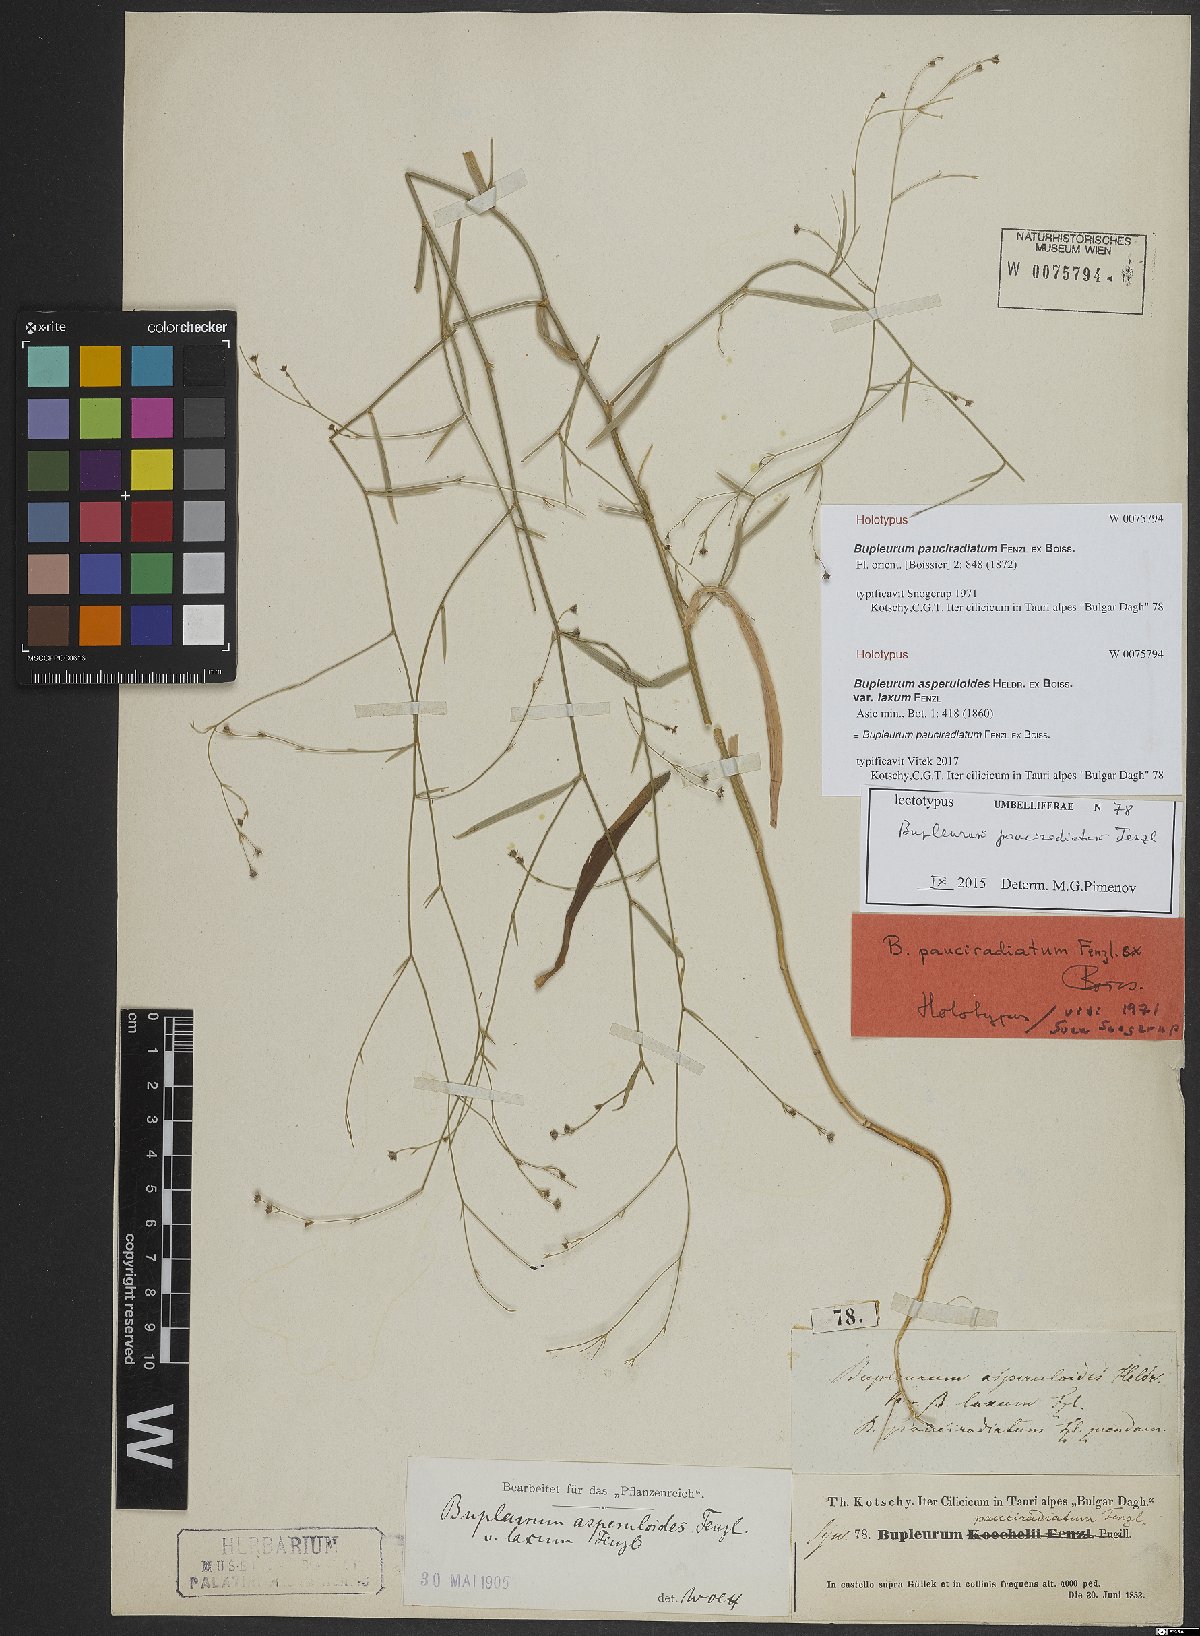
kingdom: Plantae
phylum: Tracheophyta
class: Magnoliopsida
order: Apiales
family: Apiaceae
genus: Bupleurum
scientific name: Bupleurum pauciradiatum
